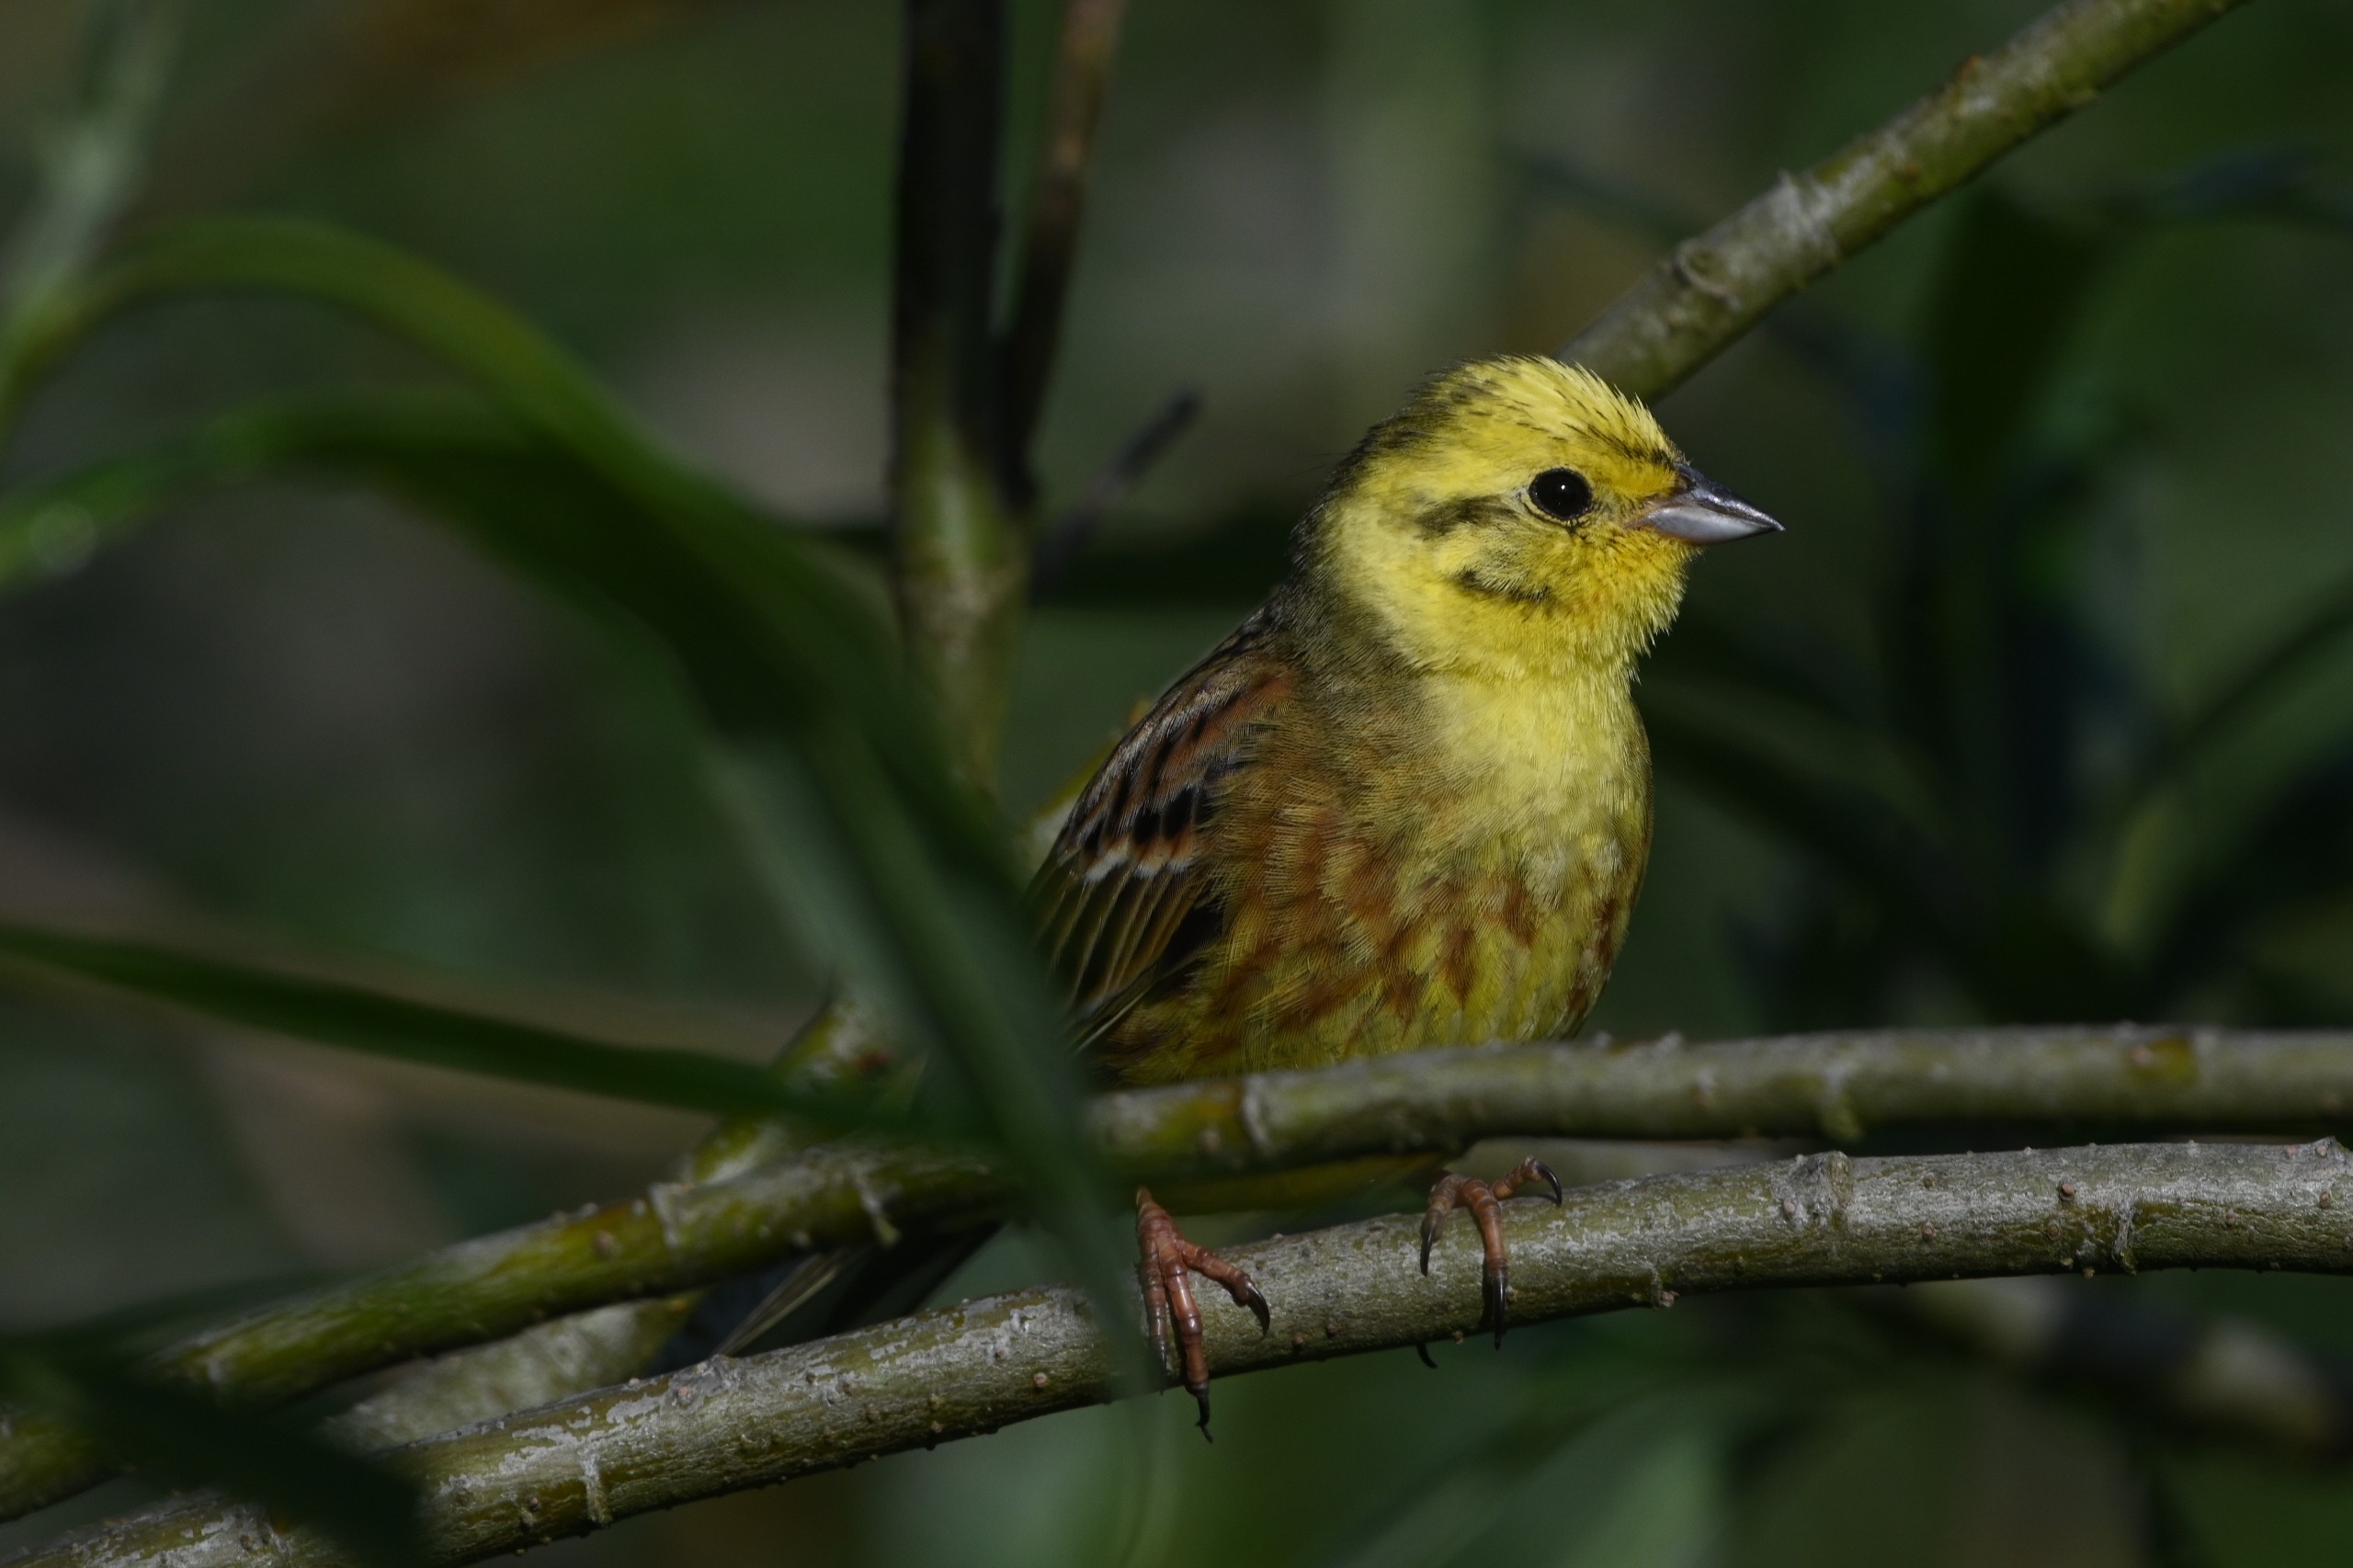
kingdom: Animalia
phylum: Chordata
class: Aves
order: Passeriformes
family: Emberizidae
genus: Emberiza
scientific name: Emberiza citrinella
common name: Gulspurv
